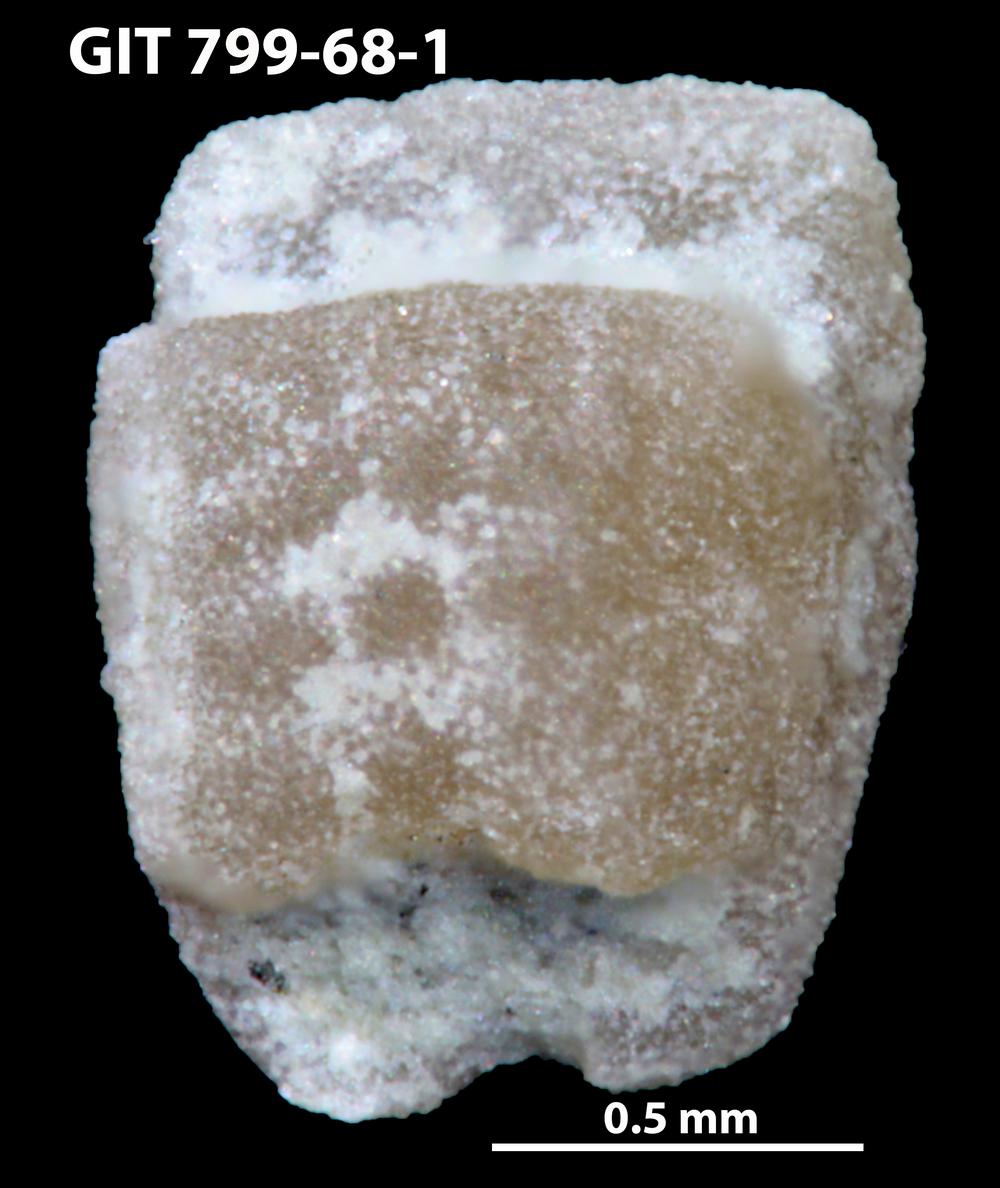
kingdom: Animalia
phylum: Echinodermata
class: Crinoidea
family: Cyclocystoididae
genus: Cyclocystoides
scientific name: Cyclocystoides
